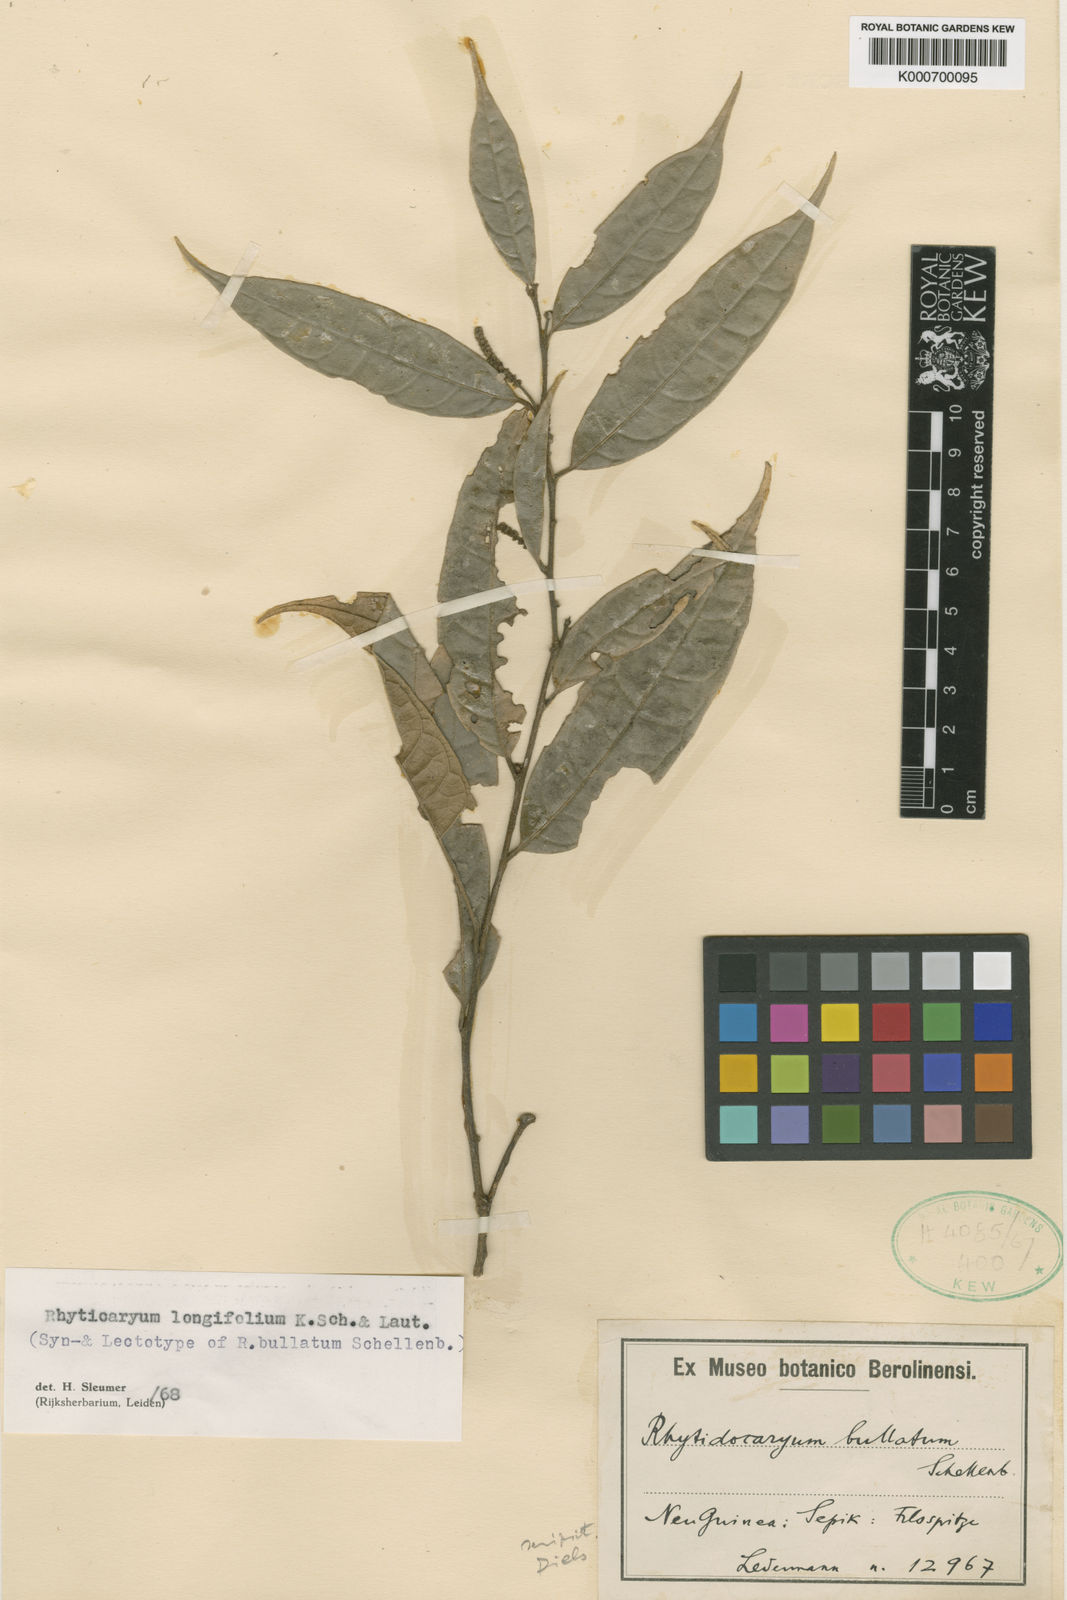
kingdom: Plantae
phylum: Tracheophyta
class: Magnoliopsida
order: Icacinales
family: Icacinaceae
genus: Ryticaryum
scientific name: Ryticaryum
